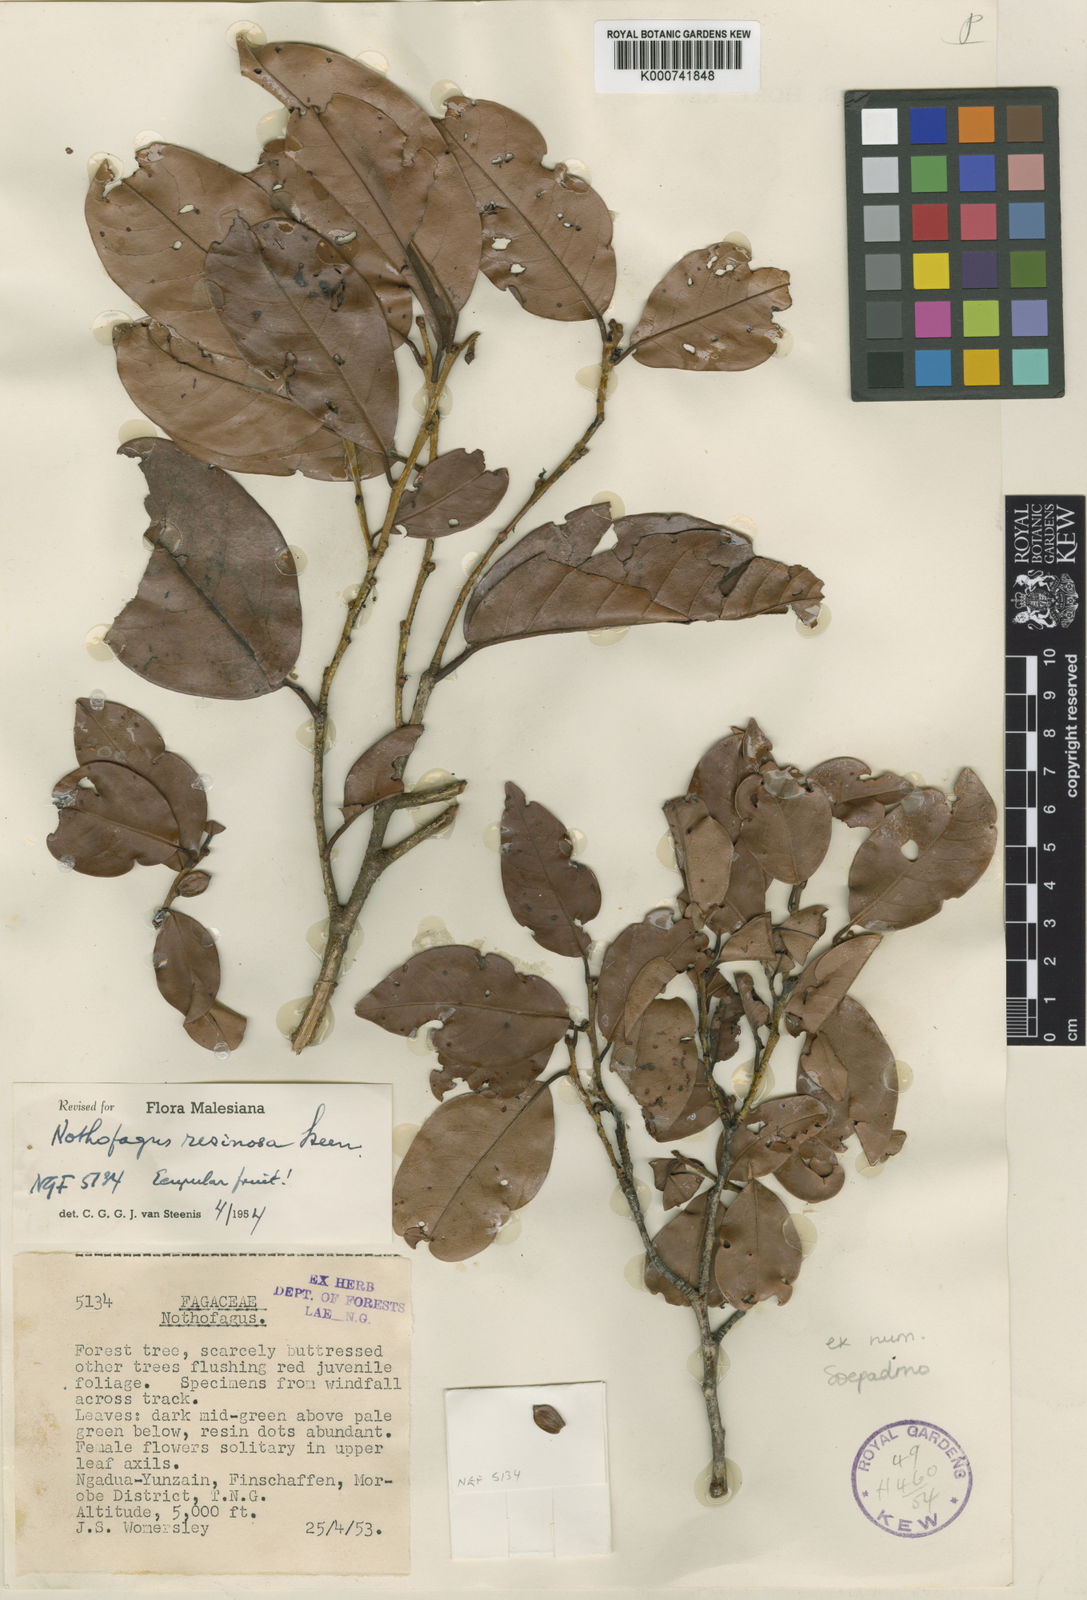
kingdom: Plantae
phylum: Tracheophyta
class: Magnoliopsida
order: Fagales
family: Nothofagaceae
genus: Nothofagus
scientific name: Nothofagus flaviramea
